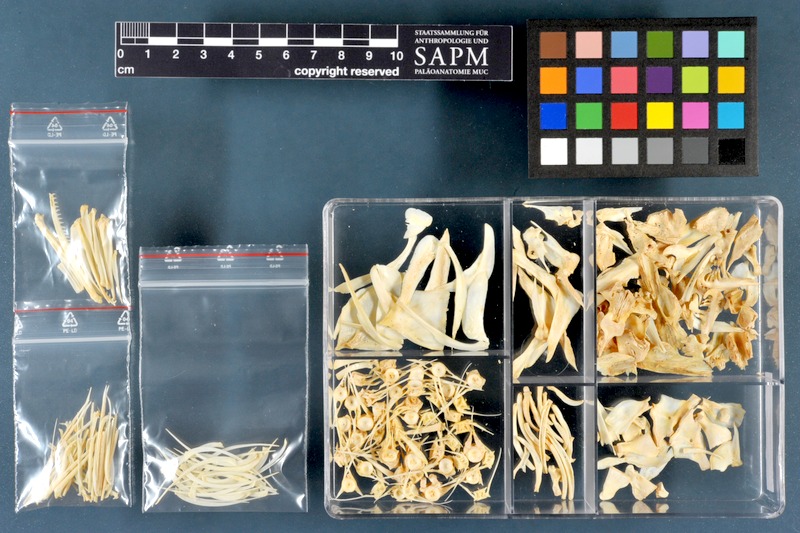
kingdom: Animalia
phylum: Chordata
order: Cypriniformes
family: Cyprinidae
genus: Luciobarbus
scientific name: Luciobarbus esocinus
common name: Pike barbel
